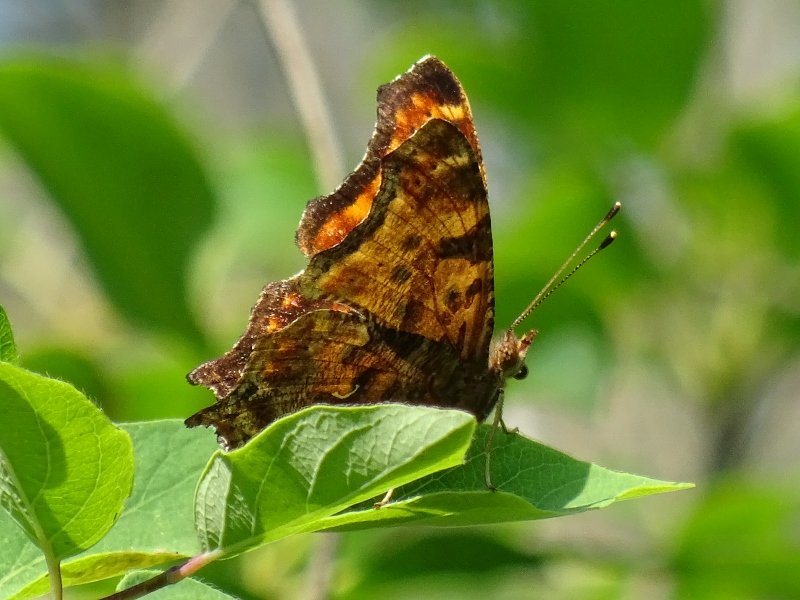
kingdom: Animalia
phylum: Arthropoda
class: Insecta
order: Lepidoptera
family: Nymphalidae
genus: Polygonia
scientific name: Polygonia comma
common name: Eastern Comma
